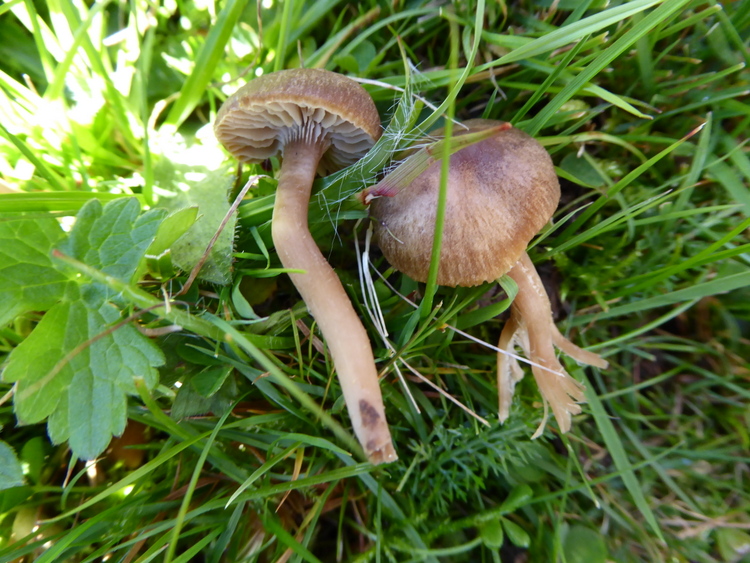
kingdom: Fungi
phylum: Basidiomycota
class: Agaricomycetes
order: Agaricales
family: Clavariaceae
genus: Camarophyllopsis
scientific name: Camarophyllopsis schulzeri
